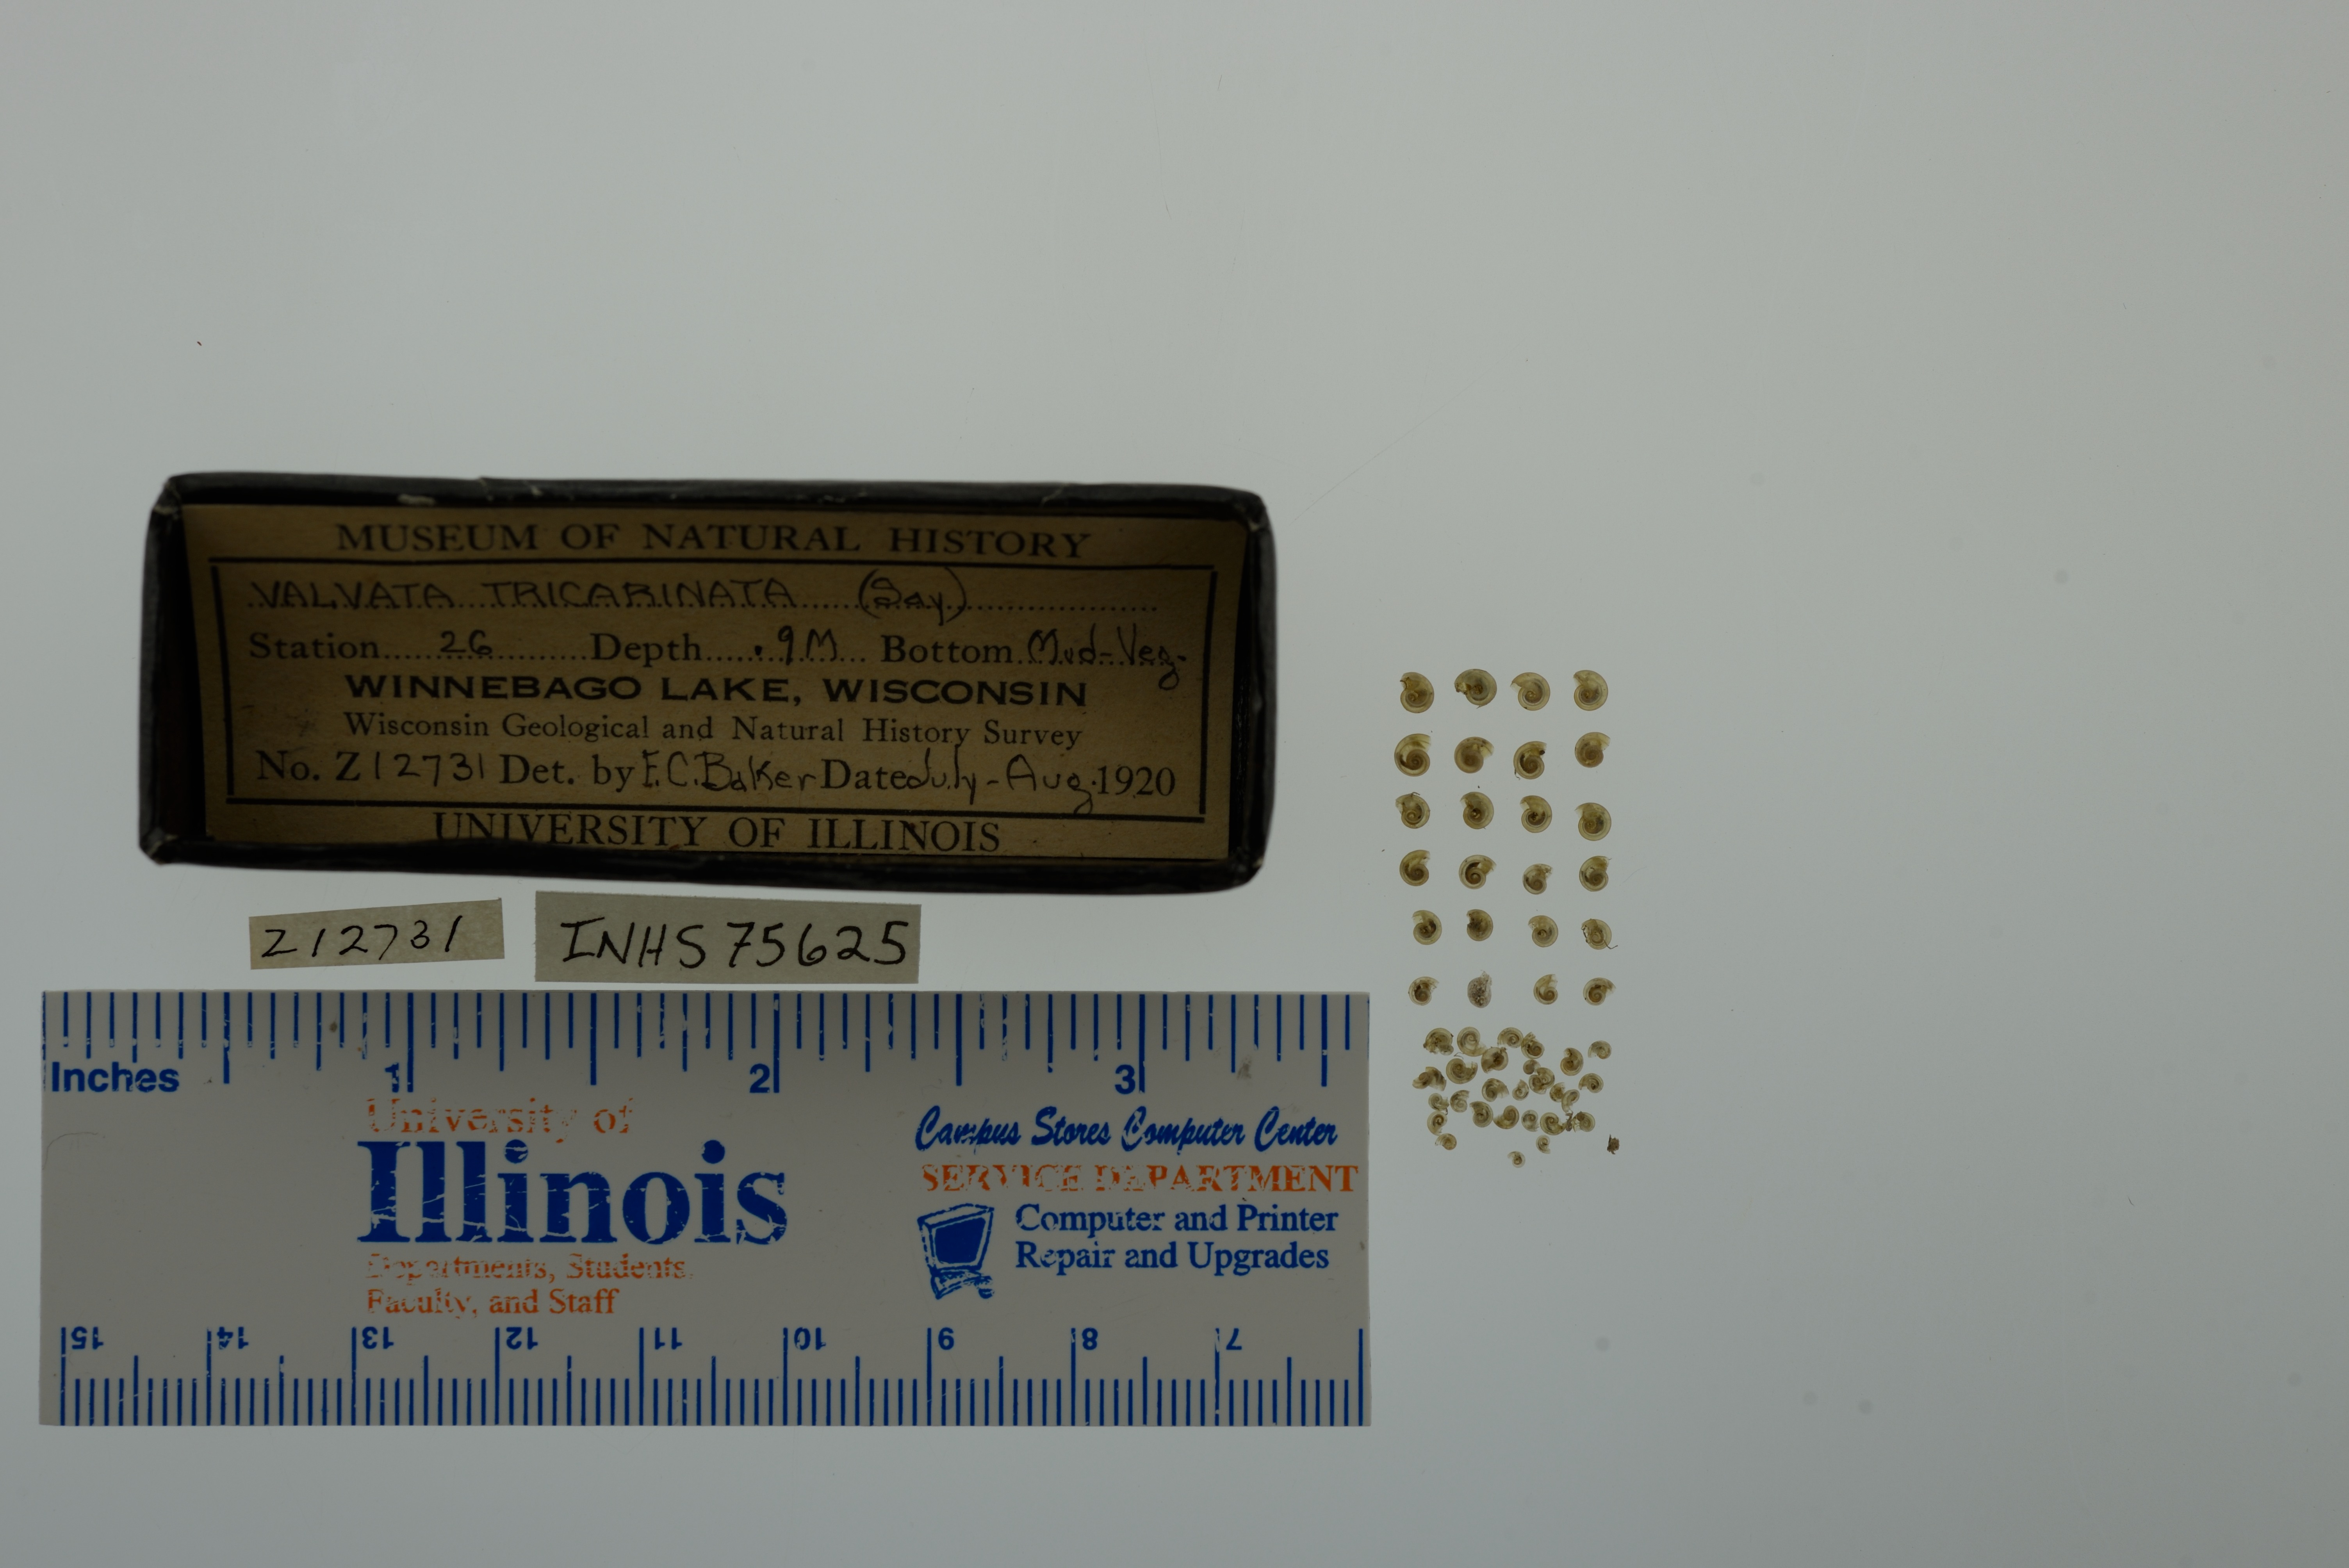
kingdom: Animalia
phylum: Mollusca
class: Gastropoda
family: Valvatidae
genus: Valvata
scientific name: Valvata tricarinata
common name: Three-ridge valvata
